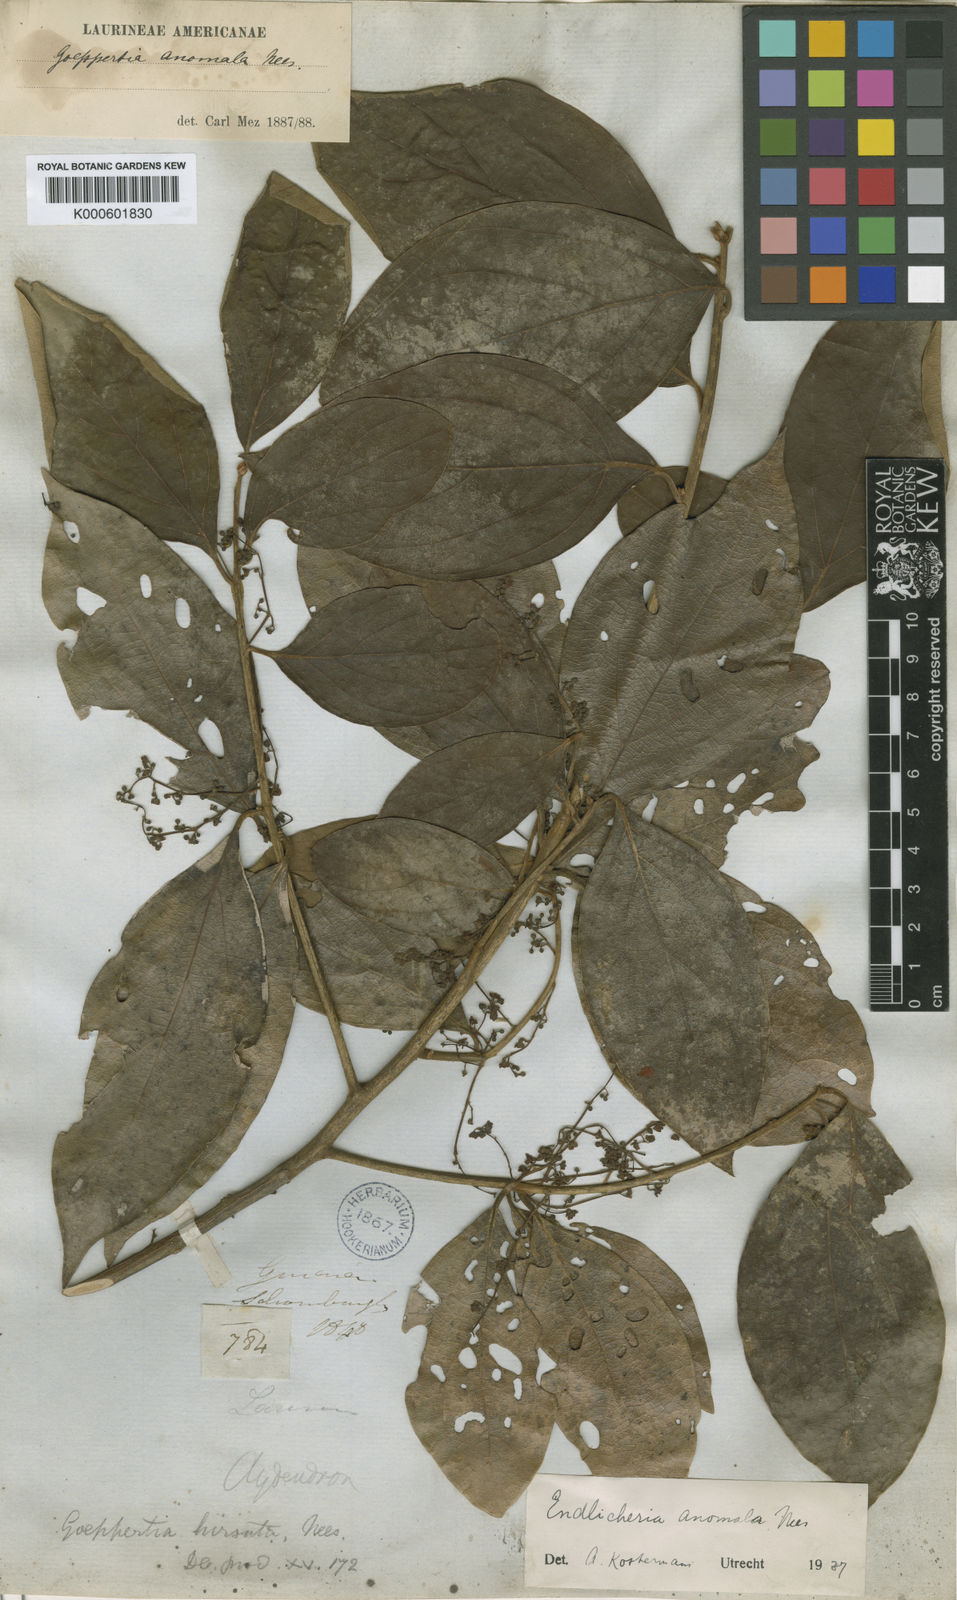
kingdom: Plantae
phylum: Tracheophyta
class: Magnoliopsida
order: Laurales
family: Lauraceae
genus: Endlicheria
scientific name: Endlicheria anomala
